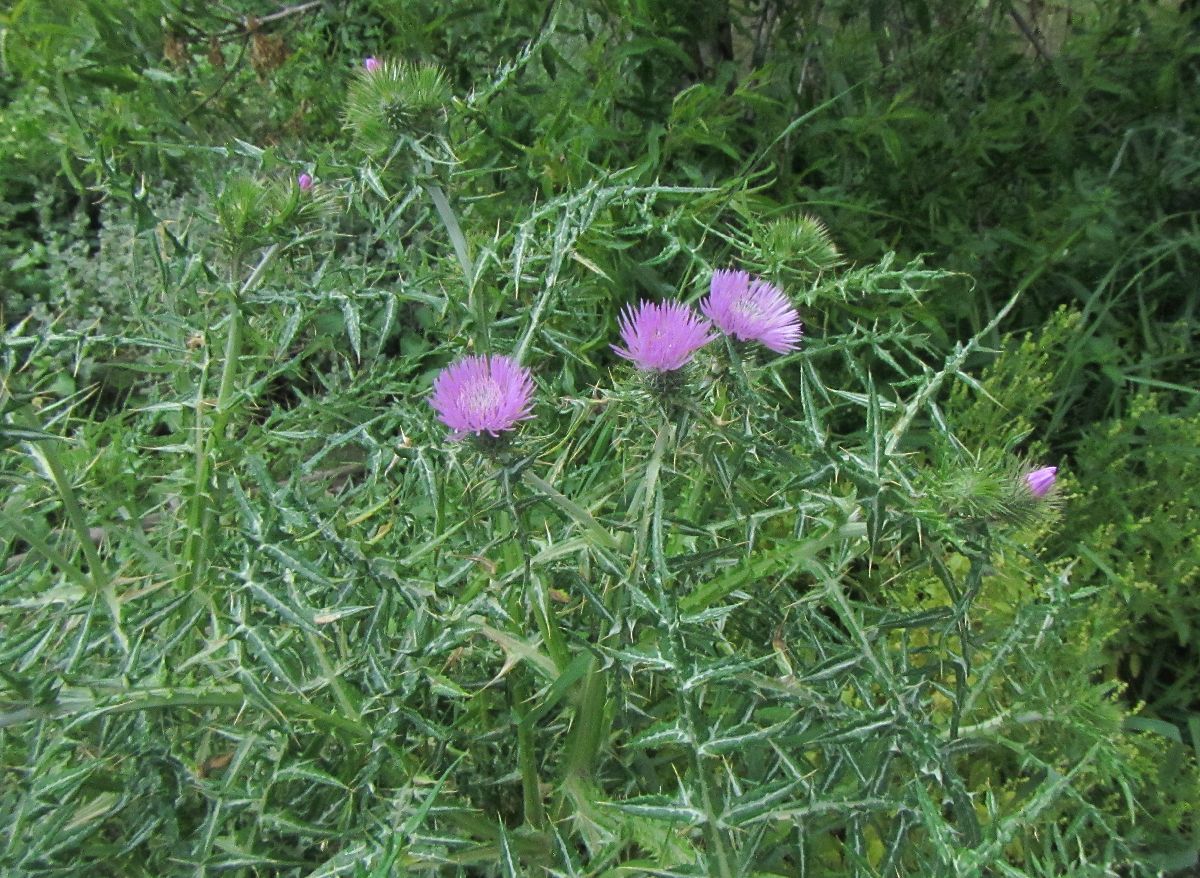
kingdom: Plantae
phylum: Tracheophyta
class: Magnoliopsida
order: Asterales
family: Asteraceae
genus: Galactites
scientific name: Galactites tomentosa
